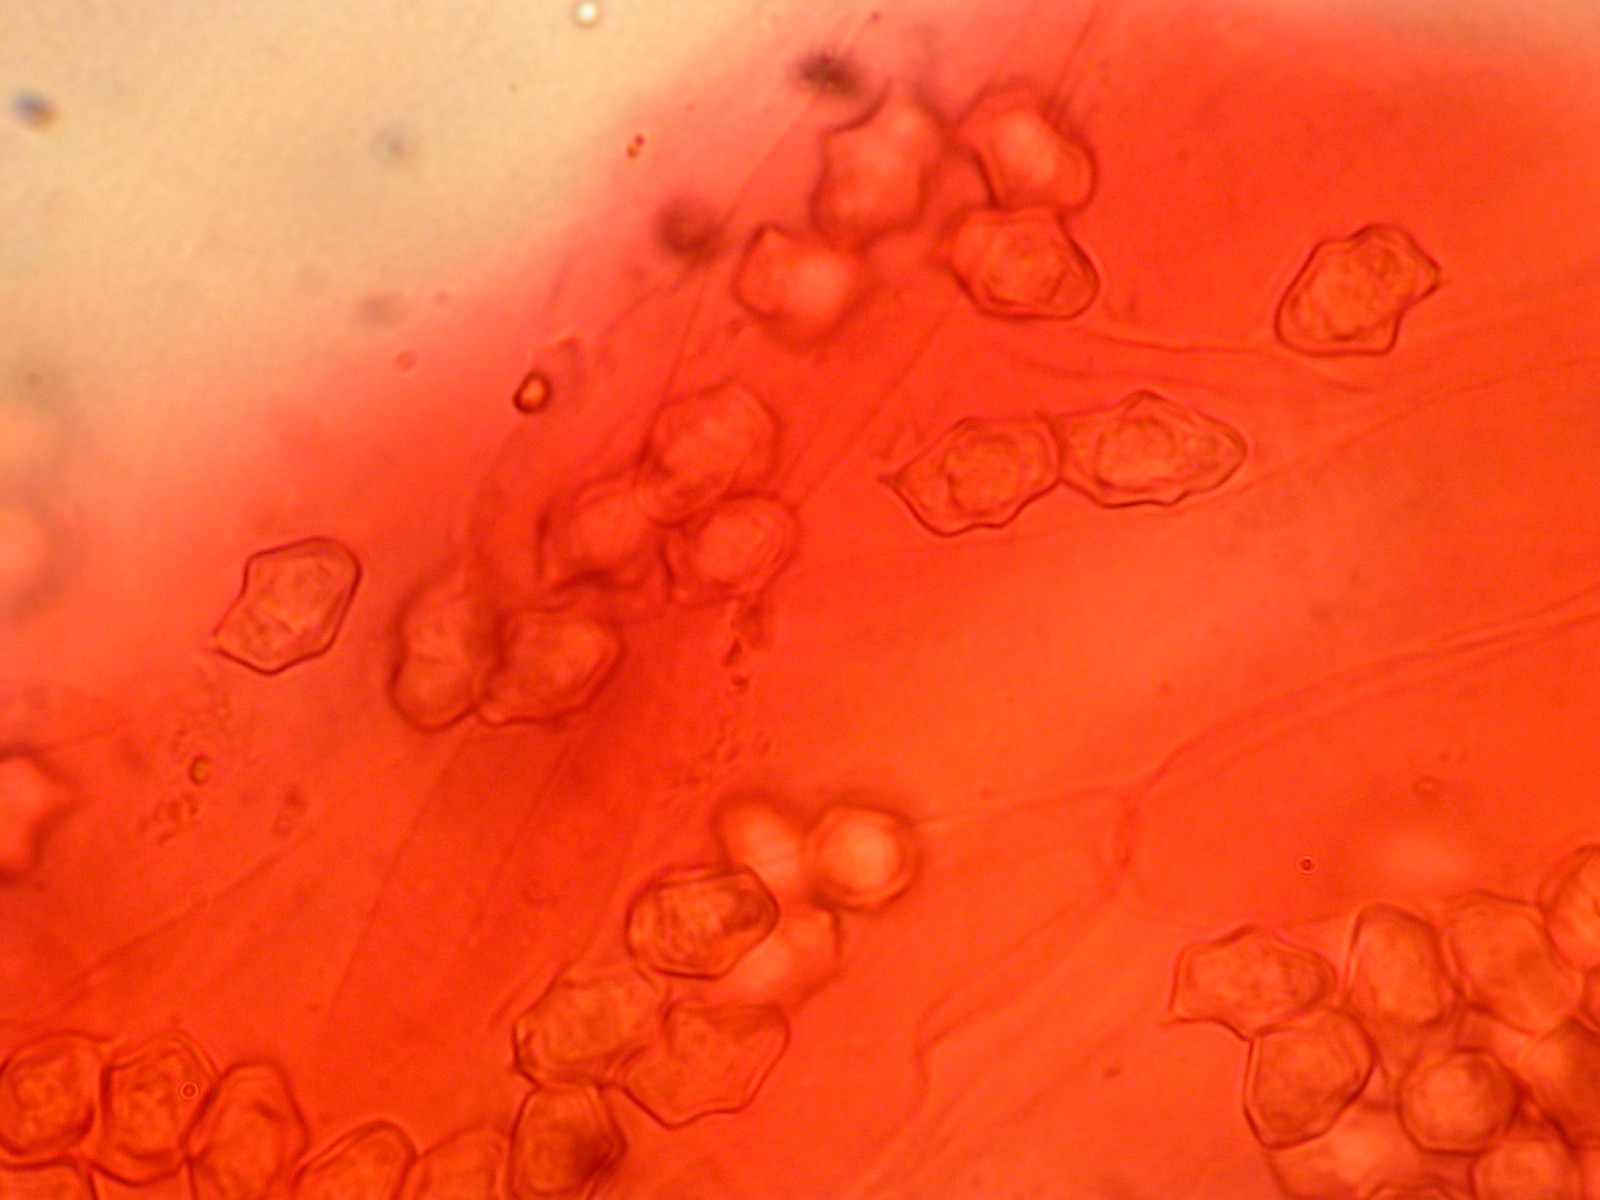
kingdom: Fungi
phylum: Basidiomycota
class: Agaricomycetes
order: Agaricales
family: Entolomataceae
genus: Entoloma
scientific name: Entoloma
